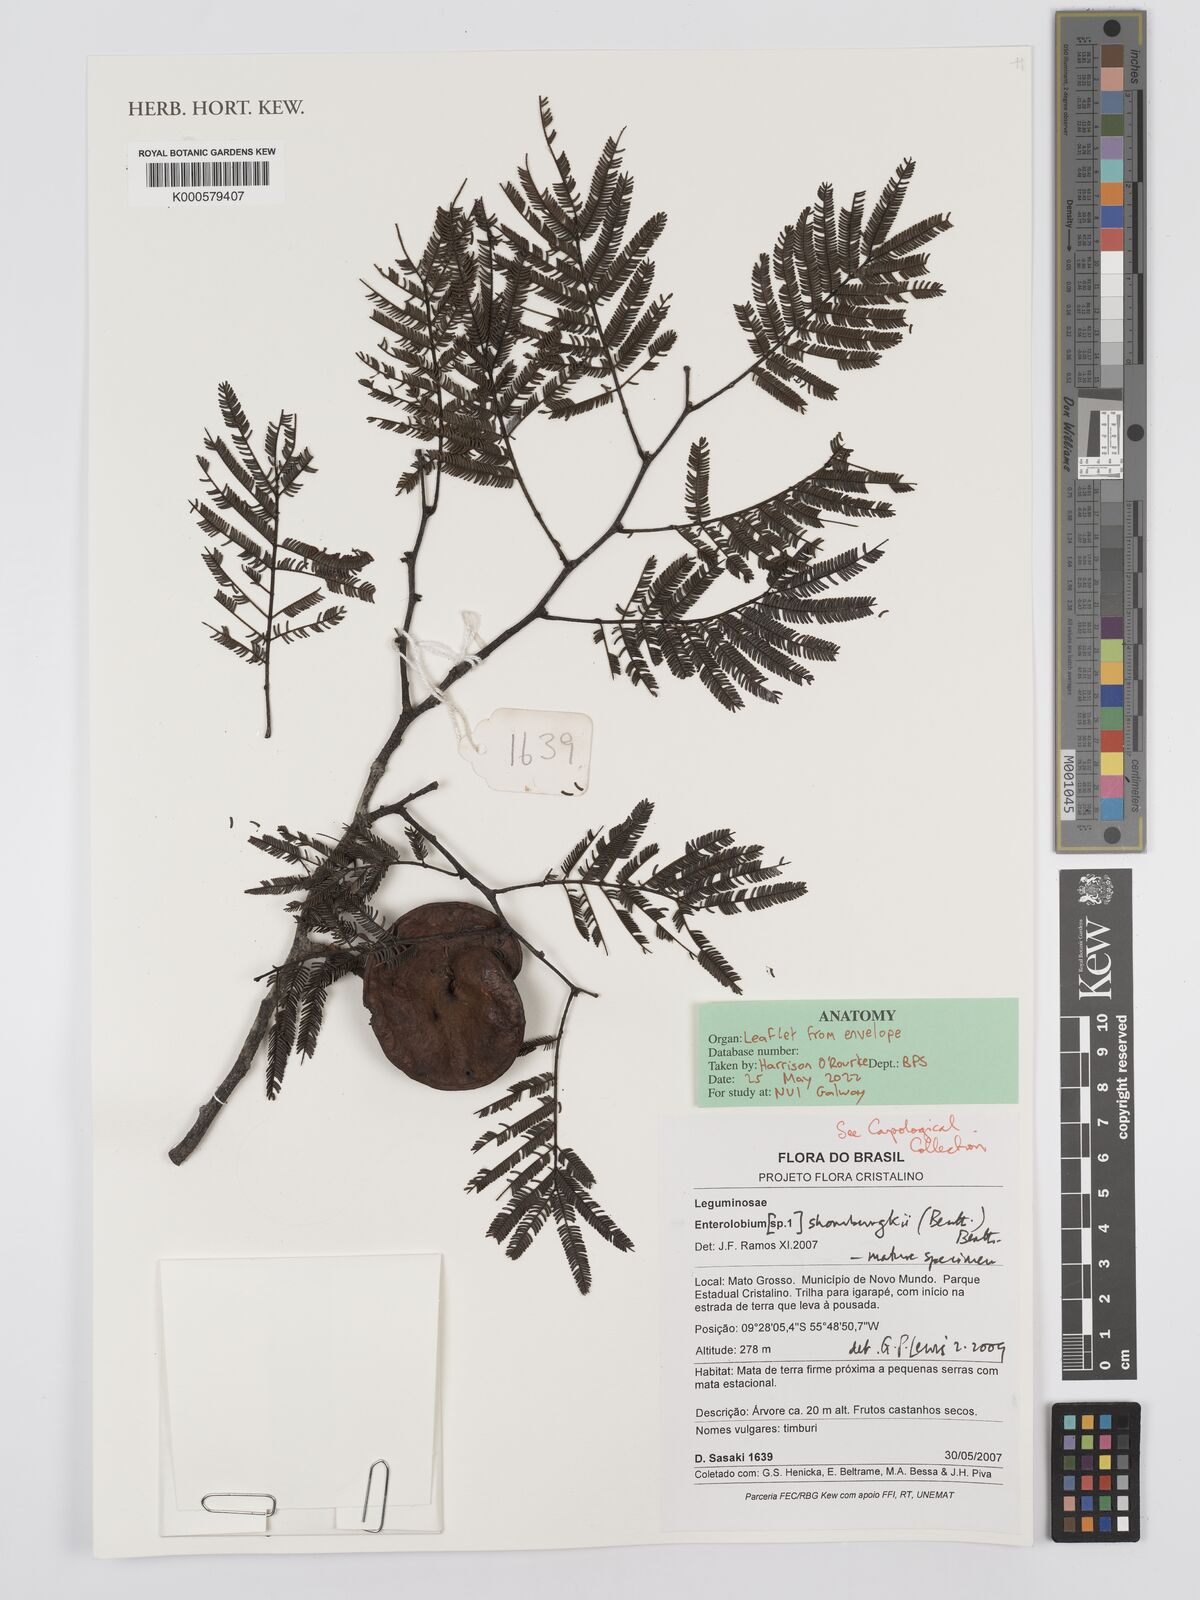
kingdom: Plantae
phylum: Tracheophyta
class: Magnoliopsida
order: Fabales
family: Fabaceae
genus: Enterolobium
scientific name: Enterolobium schomburgkii
